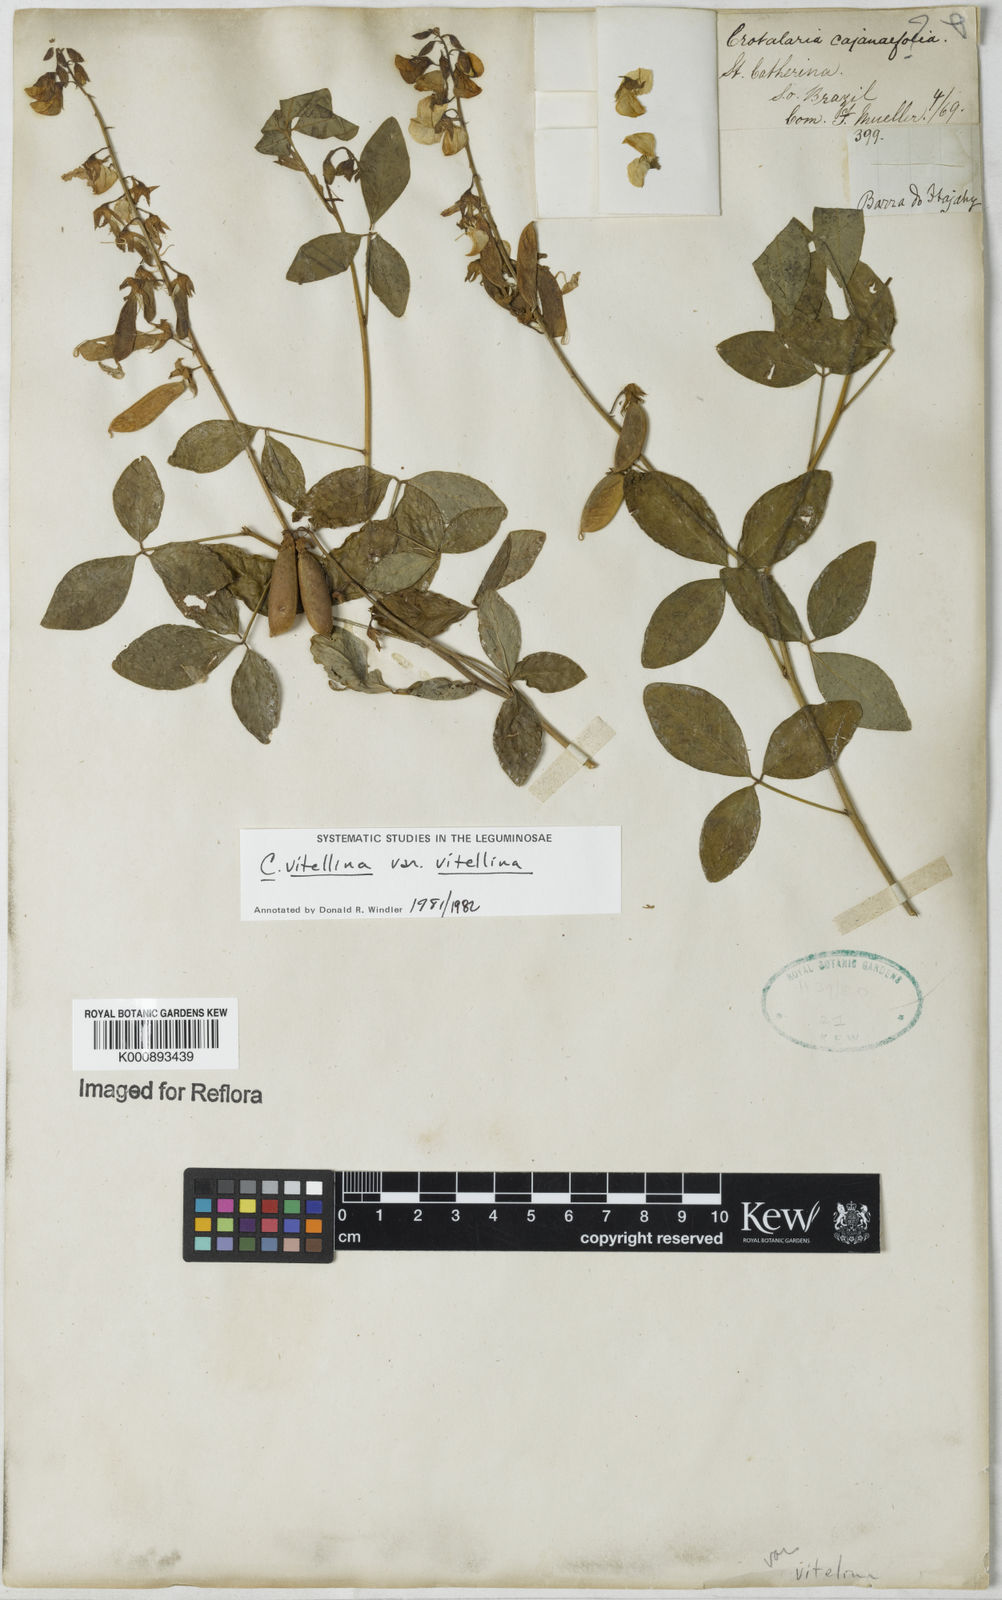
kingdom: Plantae
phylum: Tracheophyta
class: Magnoliopsida
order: Fabales
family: Fabaceae
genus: Crotalaria
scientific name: Crotalaria vitellina
